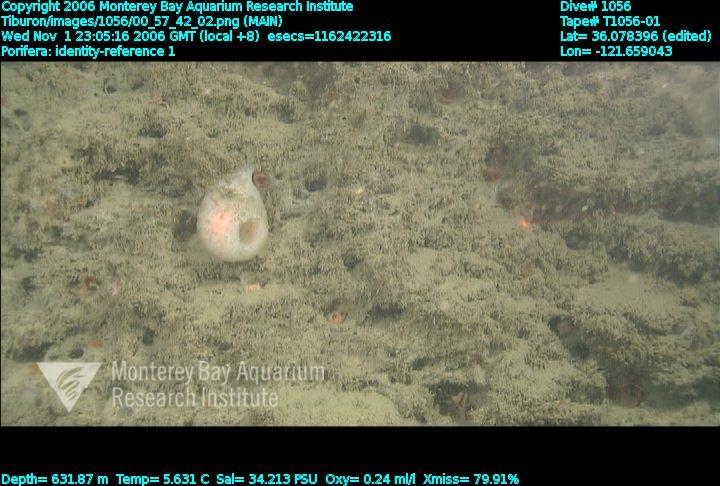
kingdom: Animalia
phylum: Porifera
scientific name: Porifera
